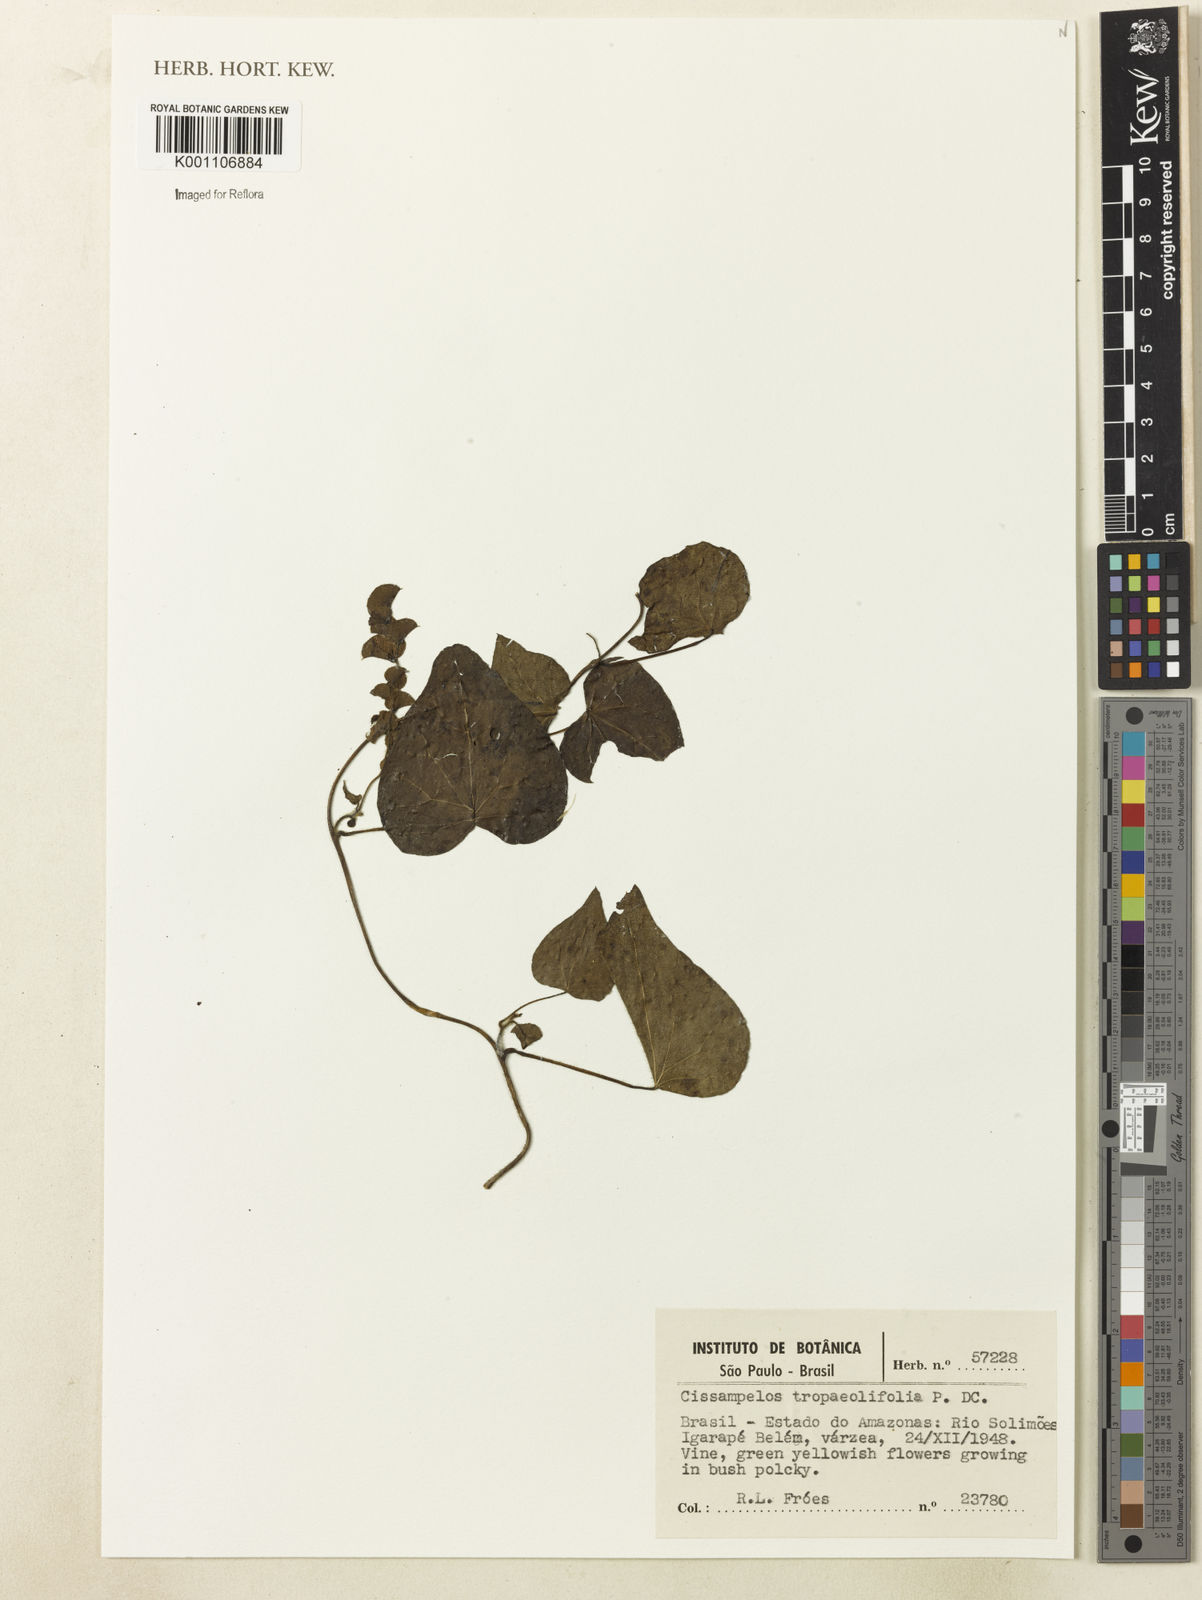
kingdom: Plantae
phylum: Tracheophyta
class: Magnoliopsida
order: Ranunculales
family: Menispermaceae
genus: Cissampelos
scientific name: Cissampelos tropaeolifolia
